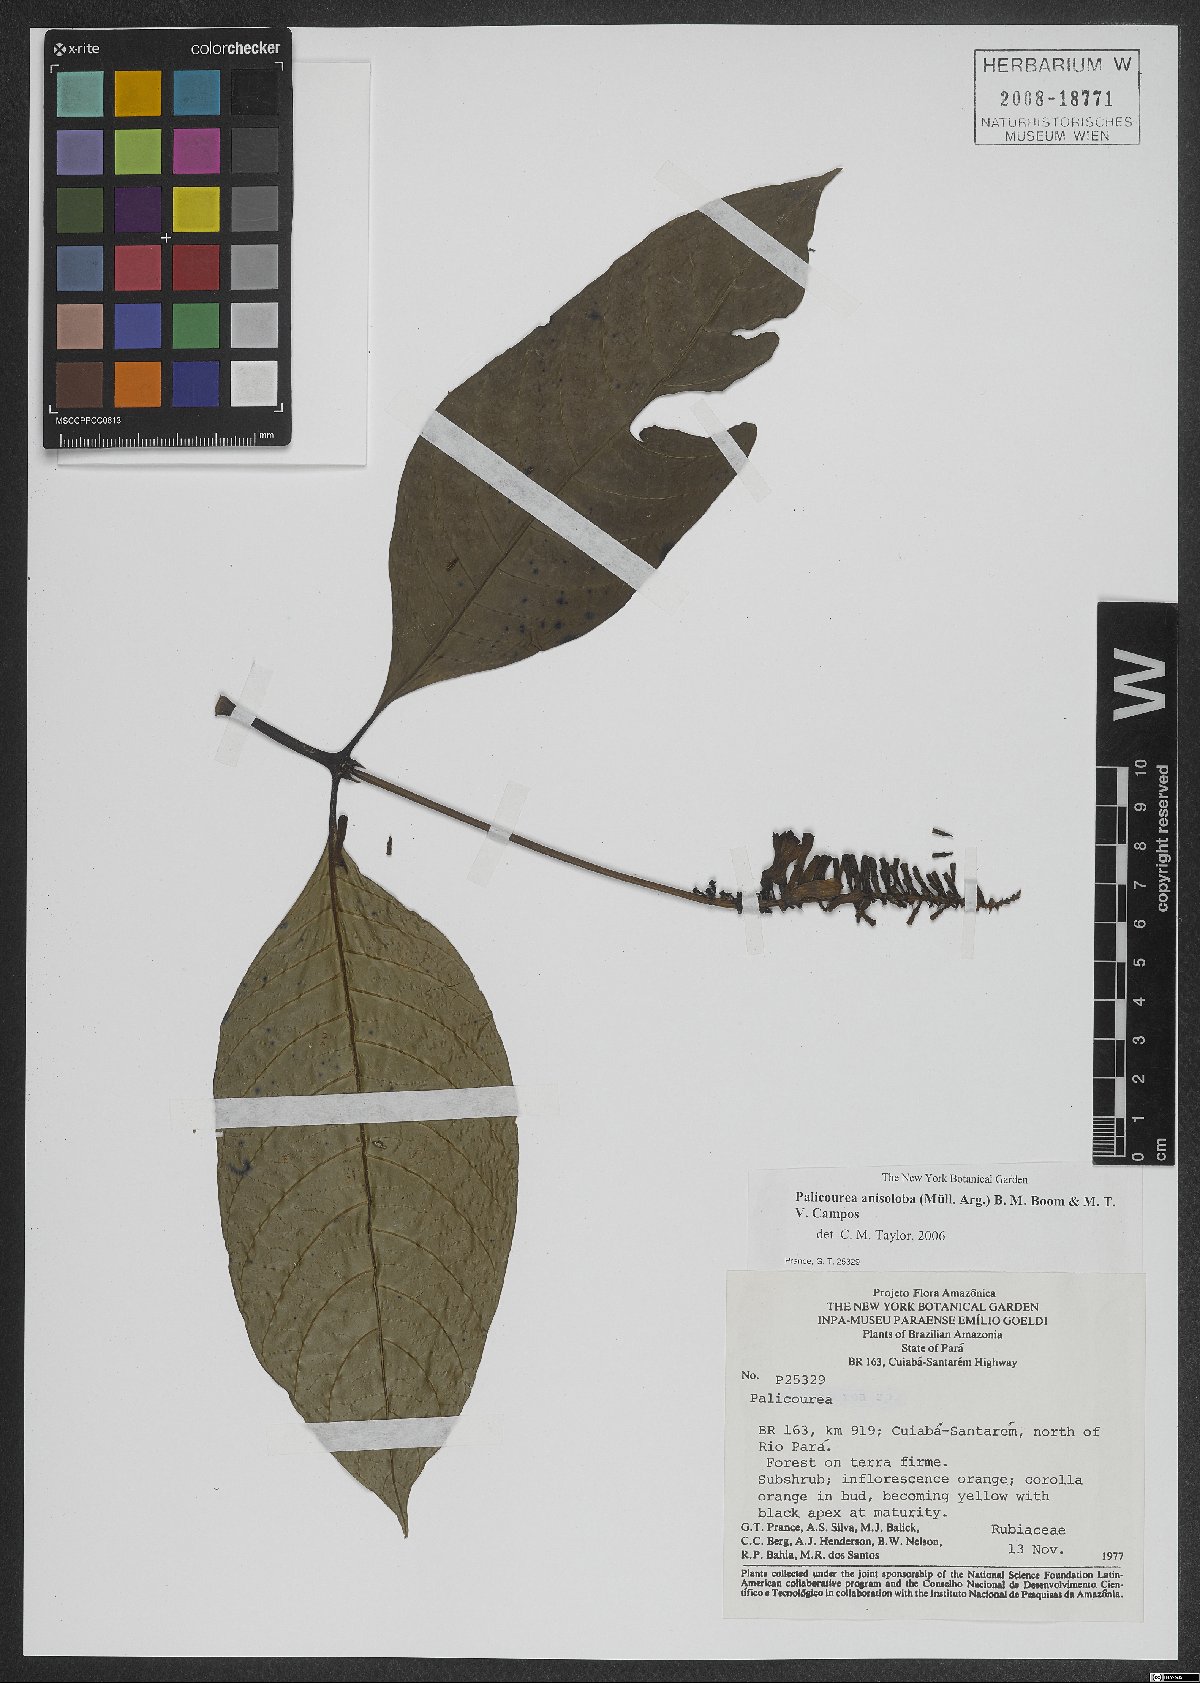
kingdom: Plantae
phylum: Tracheophyta
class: Magnoliopsida
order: Gentianales
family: Rubiaceae
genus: Palicourea
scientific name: Palicourea anisoloba
